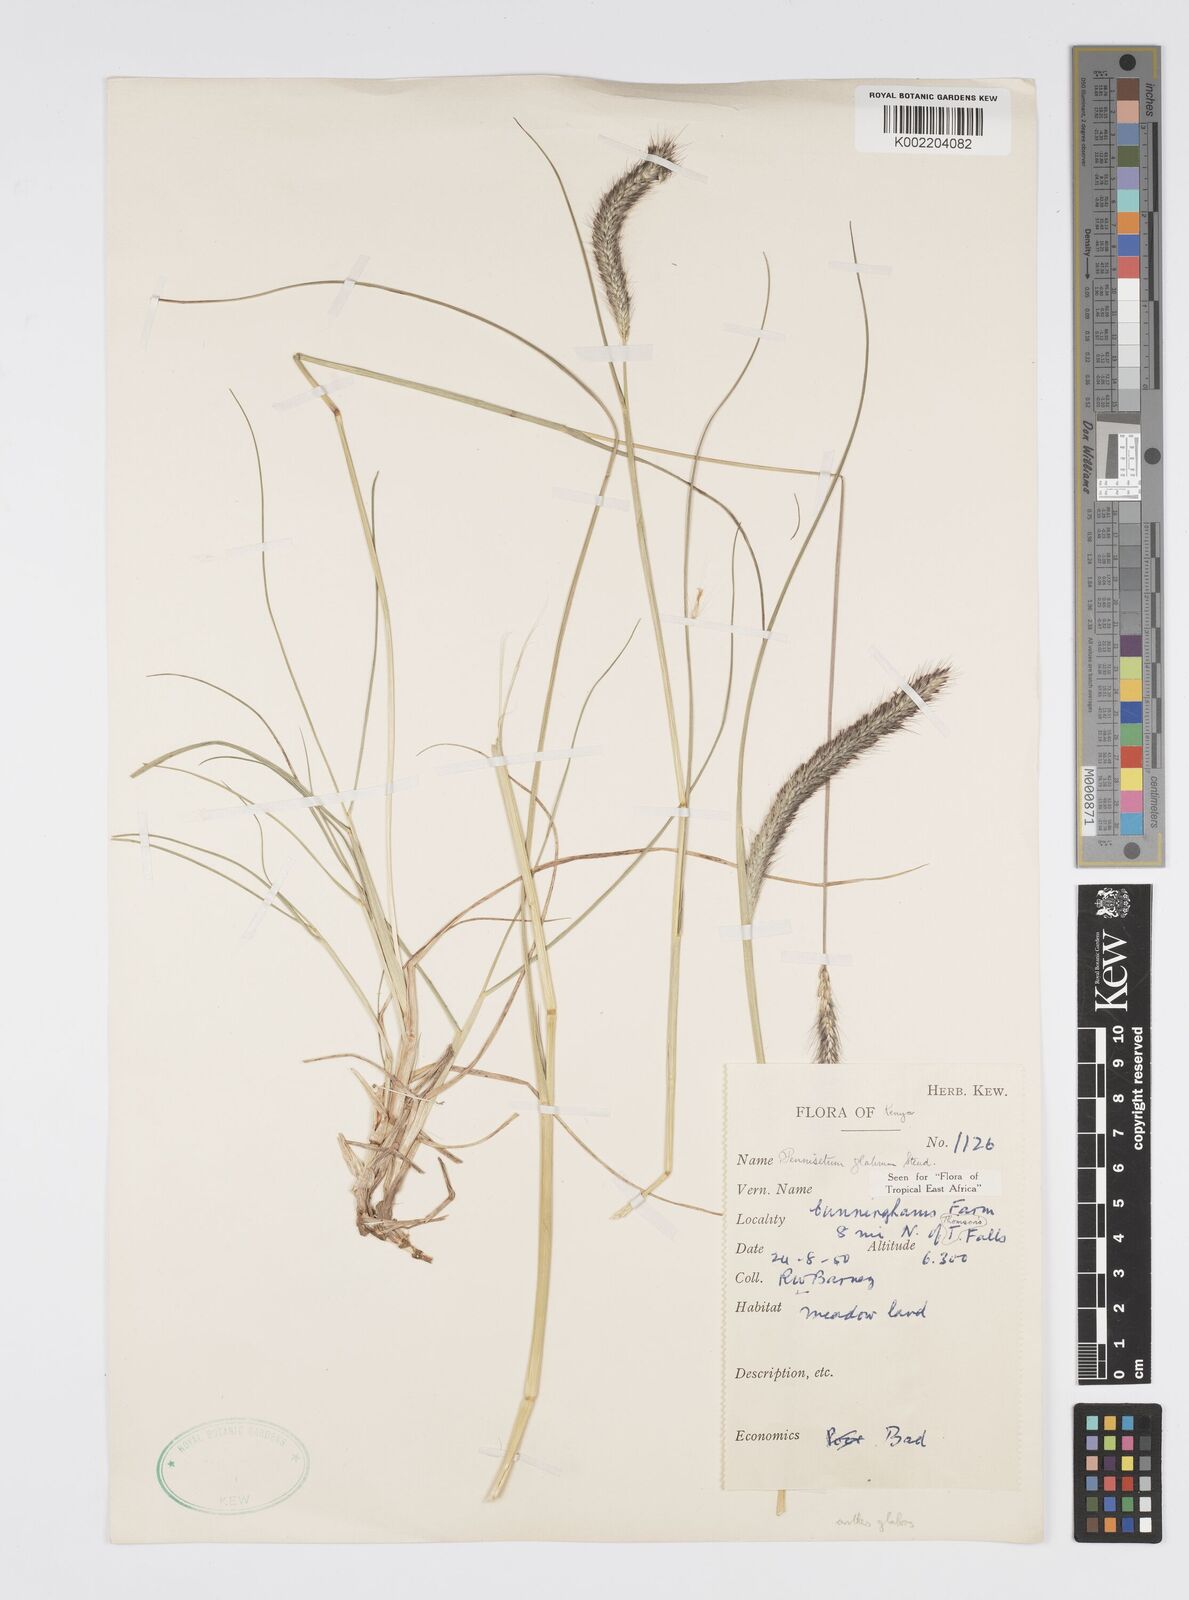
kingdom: Plantae
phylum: Tracheophyta
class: Liliopsida
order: Poales
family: Poaceae
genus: Cenchrus
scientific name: Cenchrus geniculatus
